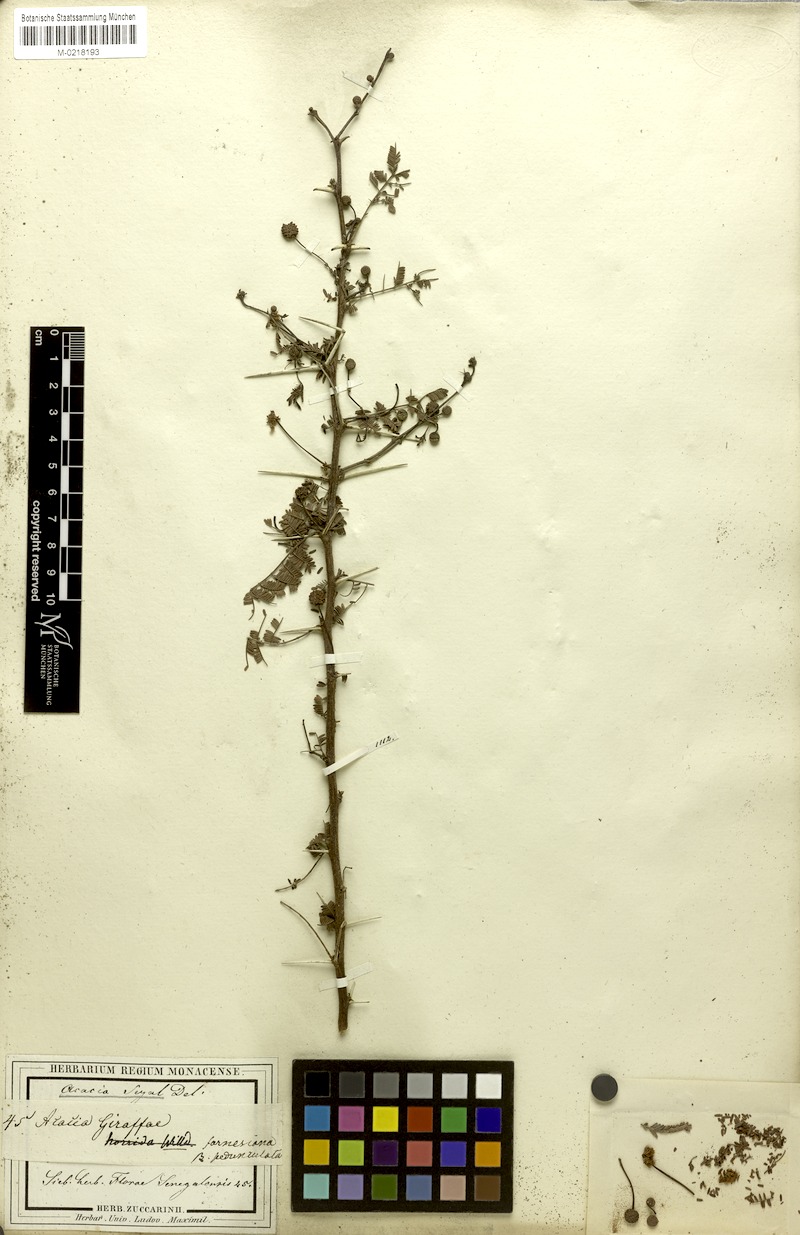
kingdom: Plantae
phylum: Tracheophyta
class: Magnoliopsida
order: Fabales
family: Fabaceae
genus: Vachellia
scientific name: Vachellia seyal
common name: Thirtythorn
